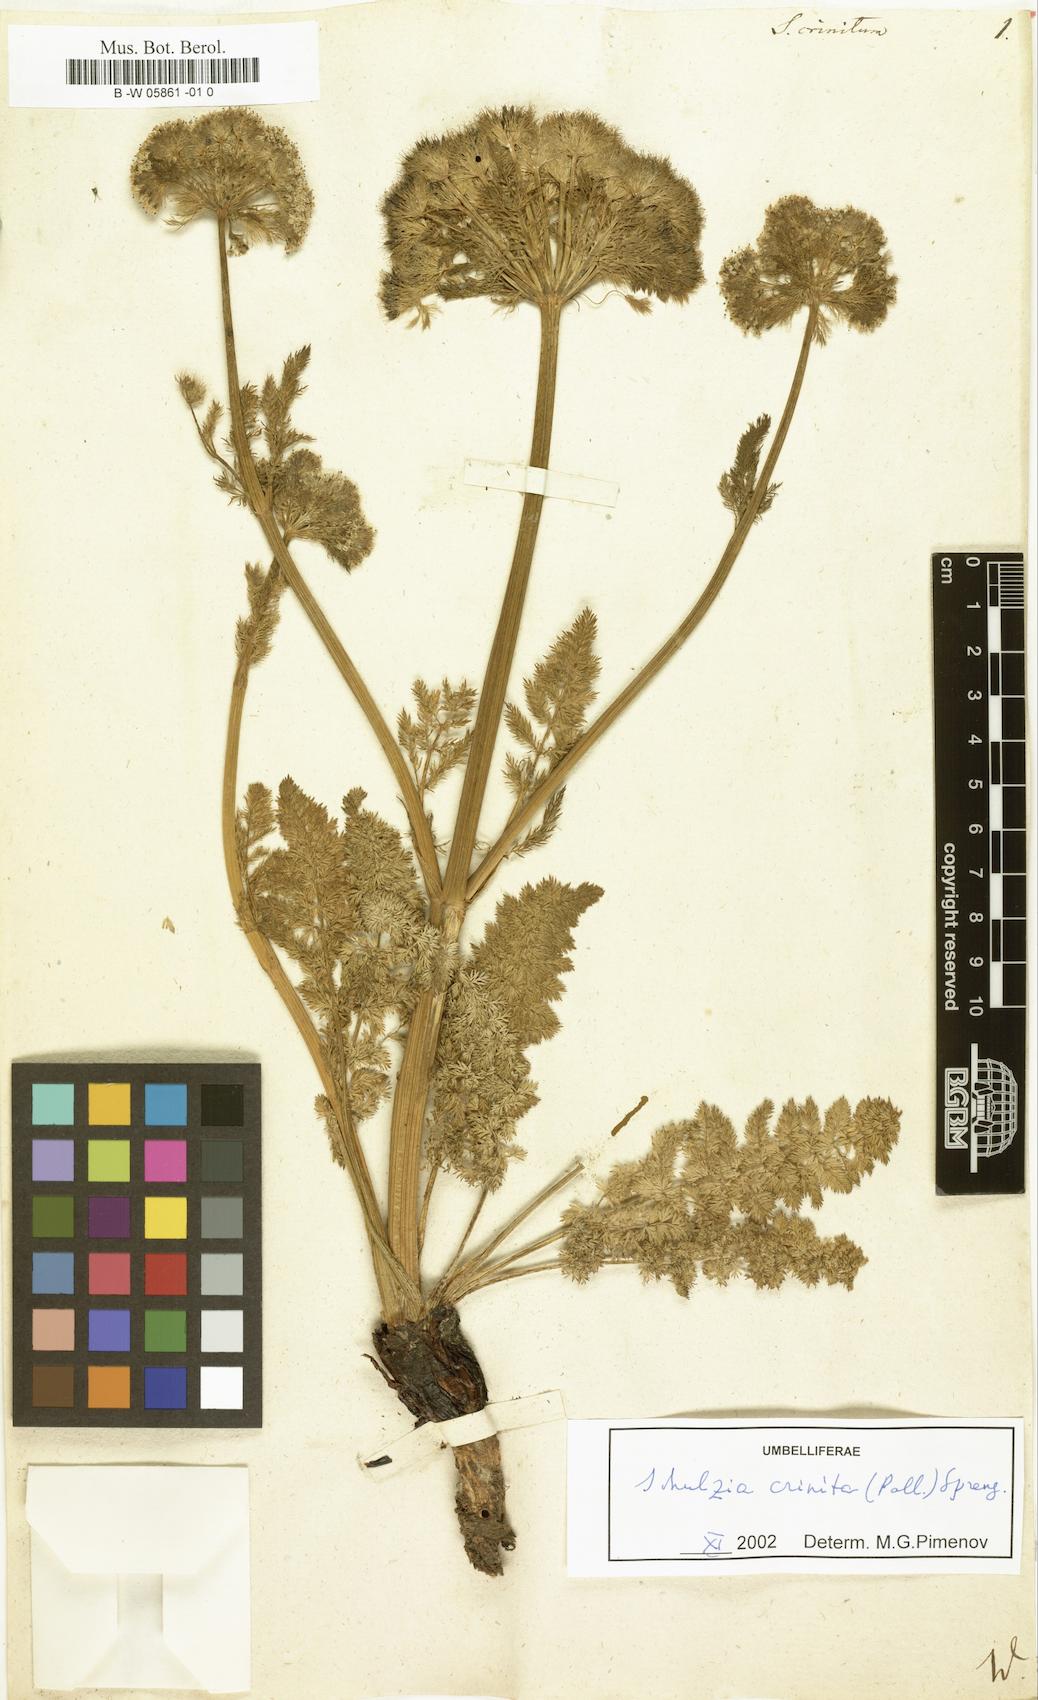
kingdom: Plantae
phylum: Tracheophyta
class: Magnoliopsida
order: Apiales
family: Apiaceae
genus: Schulzia
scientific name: Schulzia crinita
